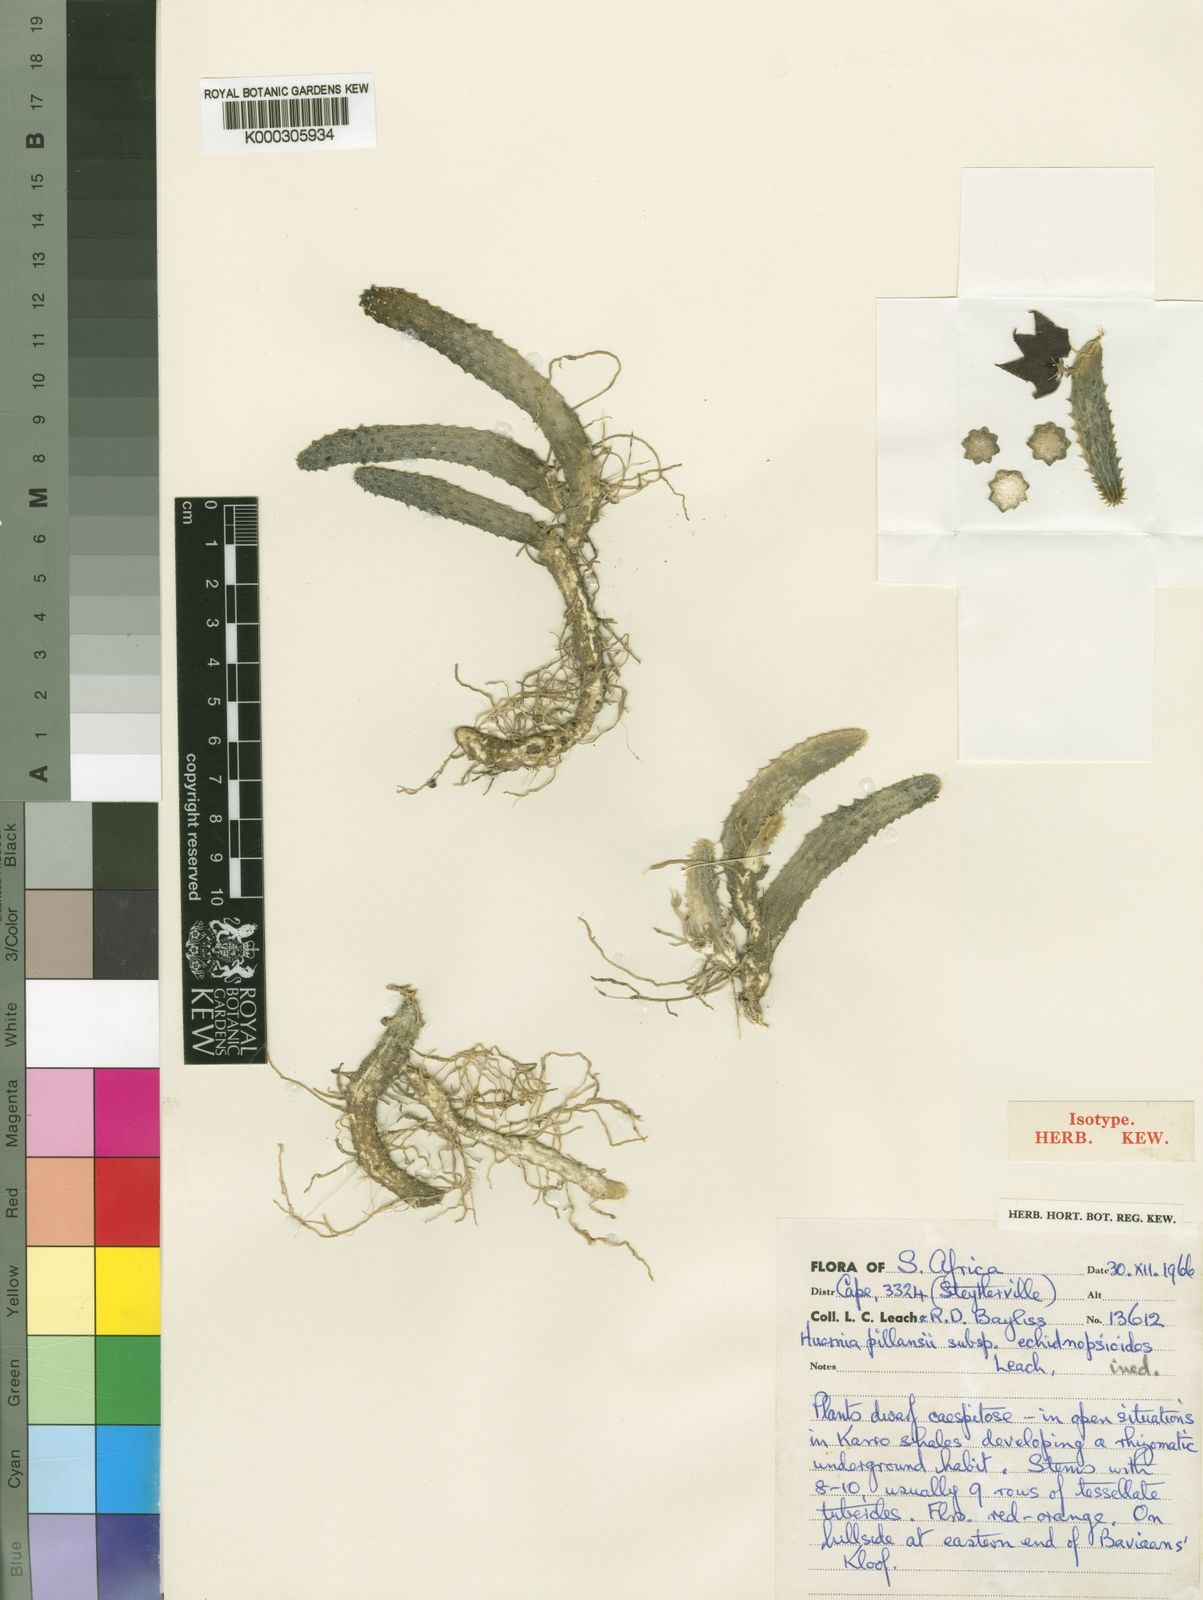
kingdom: Plantae
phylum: Tracheophyta
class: Magnoliopsida
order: Gentianales
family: Apocynaceae
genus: Ceropegia
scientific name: Ceropegia longii
